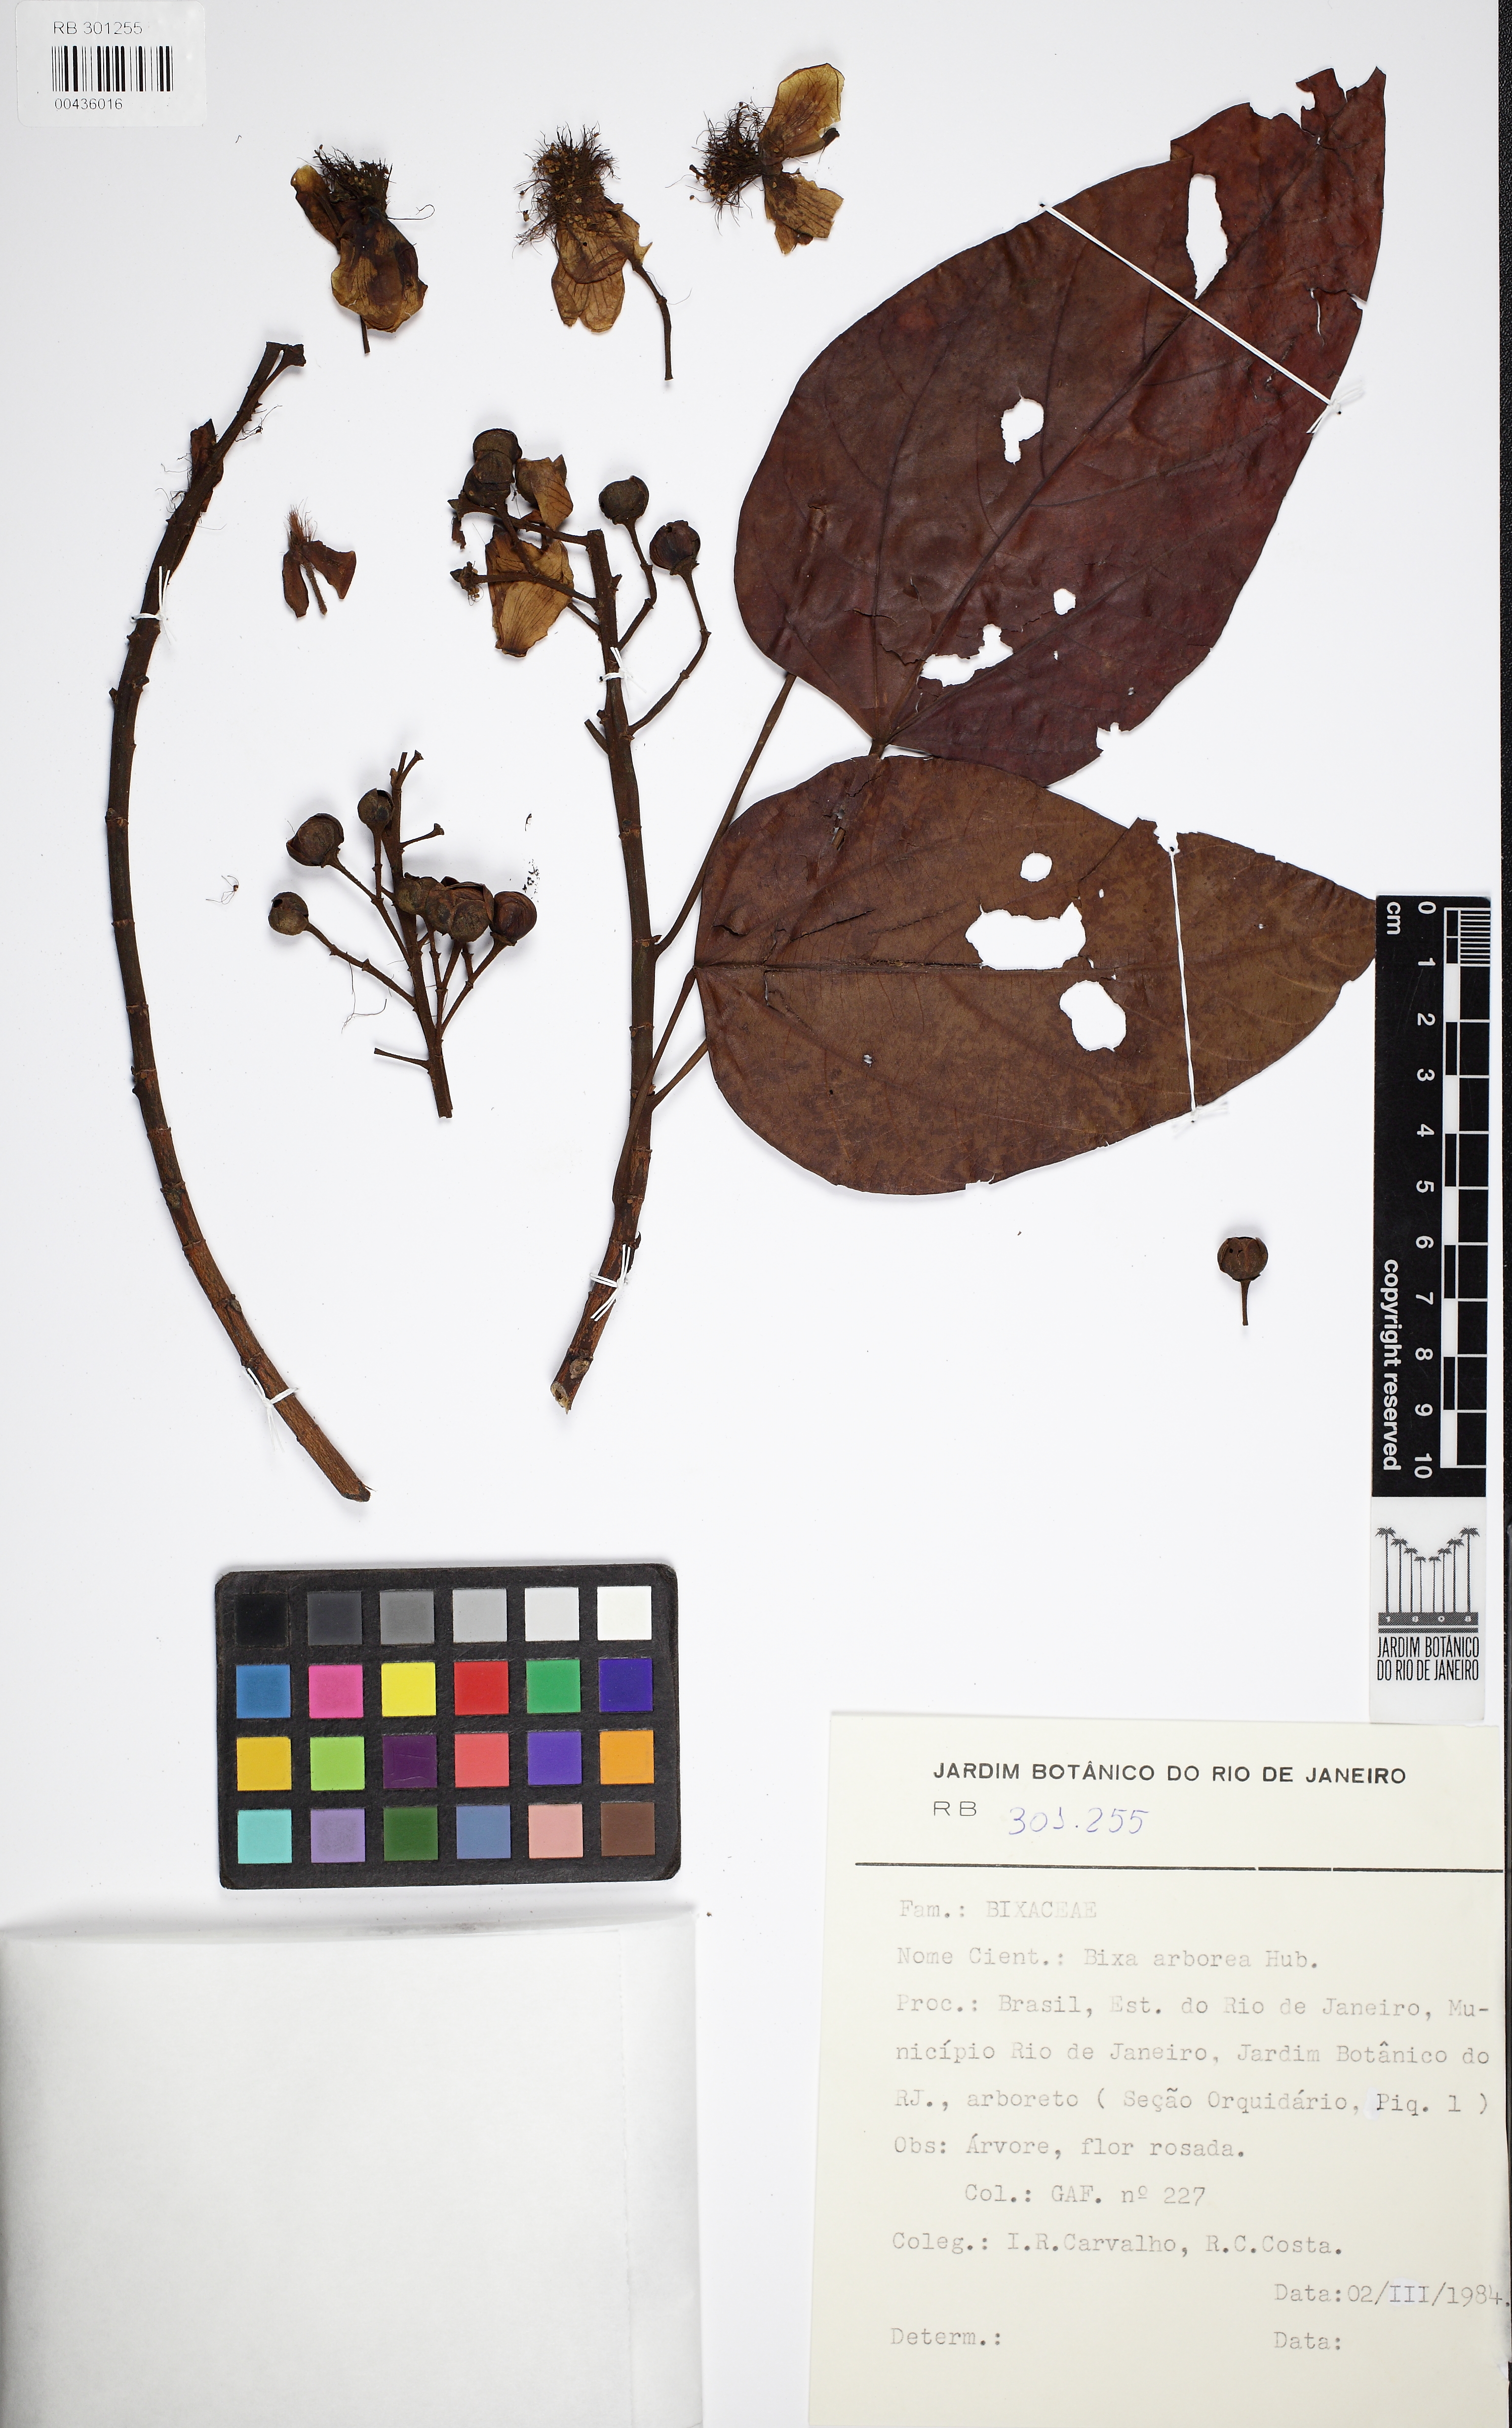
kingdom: Plantae
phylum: Tracheophyta
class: Magnoliopsida
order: Malvales
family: Bixaceae
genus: Bixa
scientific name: Bixa arborea
